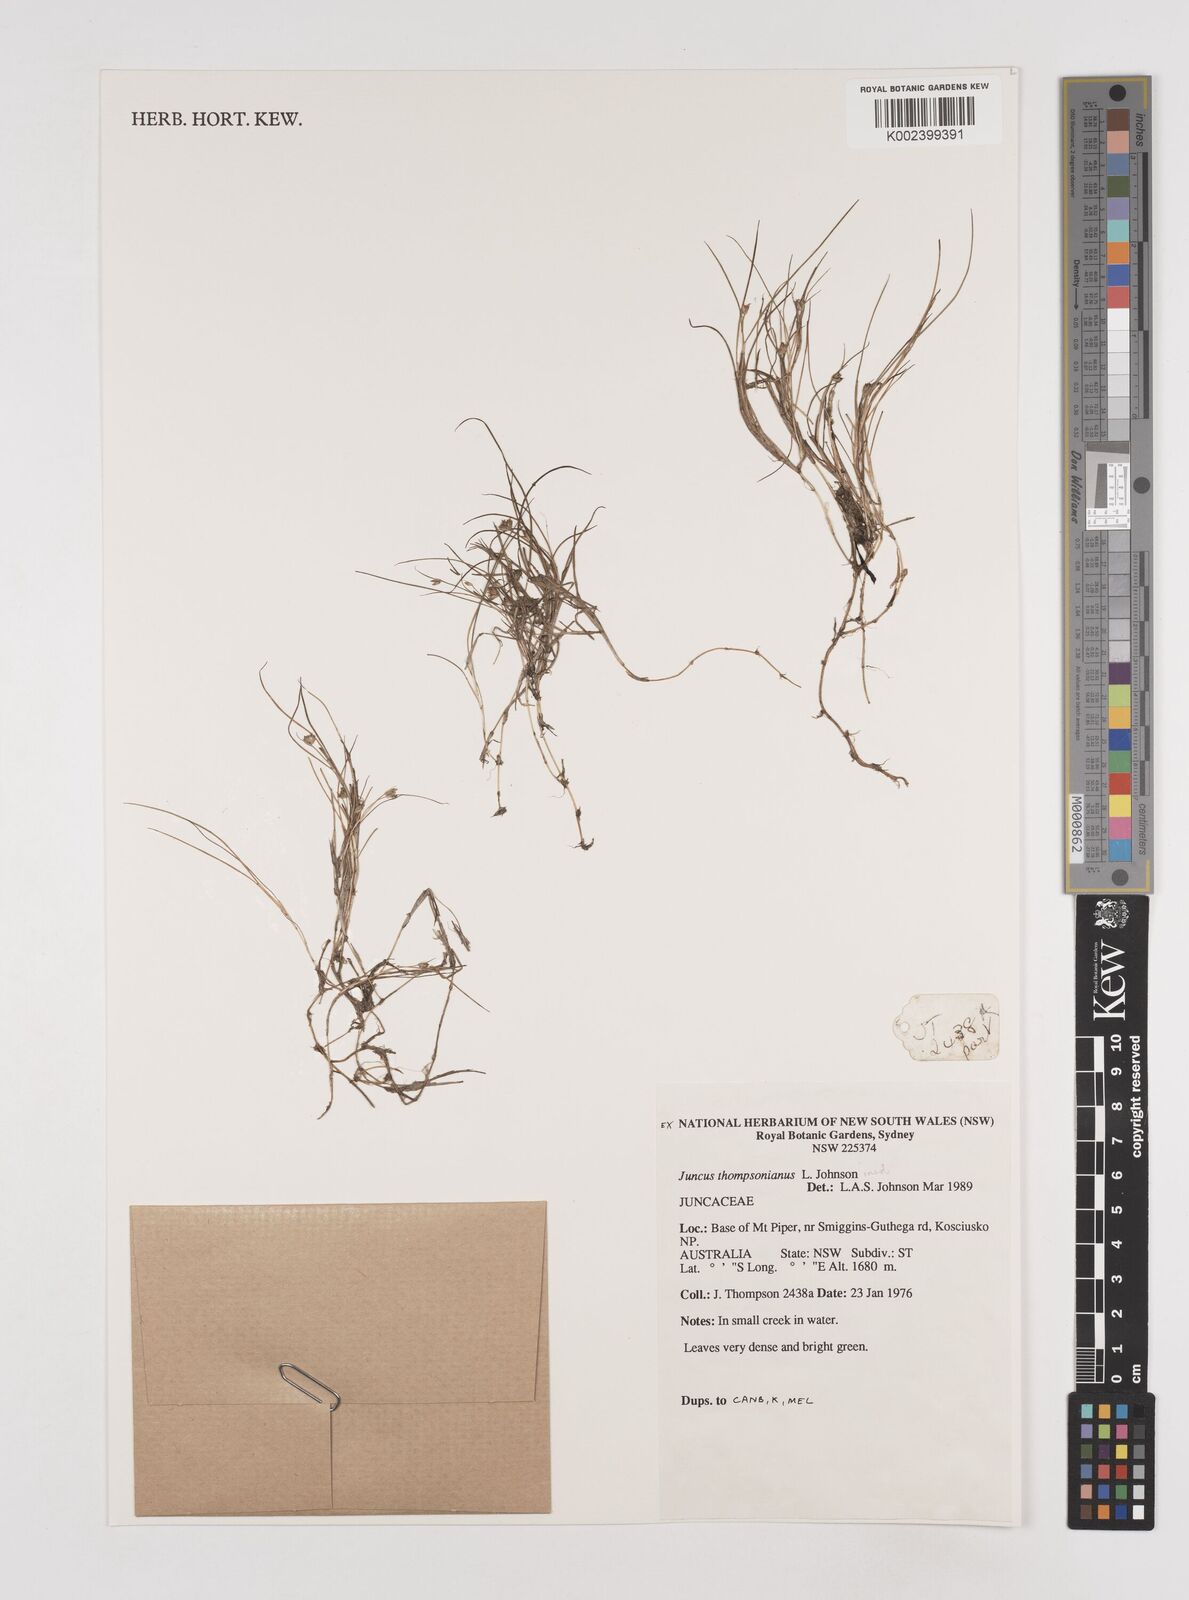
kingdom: Plantae
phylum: Tracheophyta
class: Liliopsida
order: Poales
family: Juncaceae
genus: Juncus
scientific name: Juncus thompsonianus
